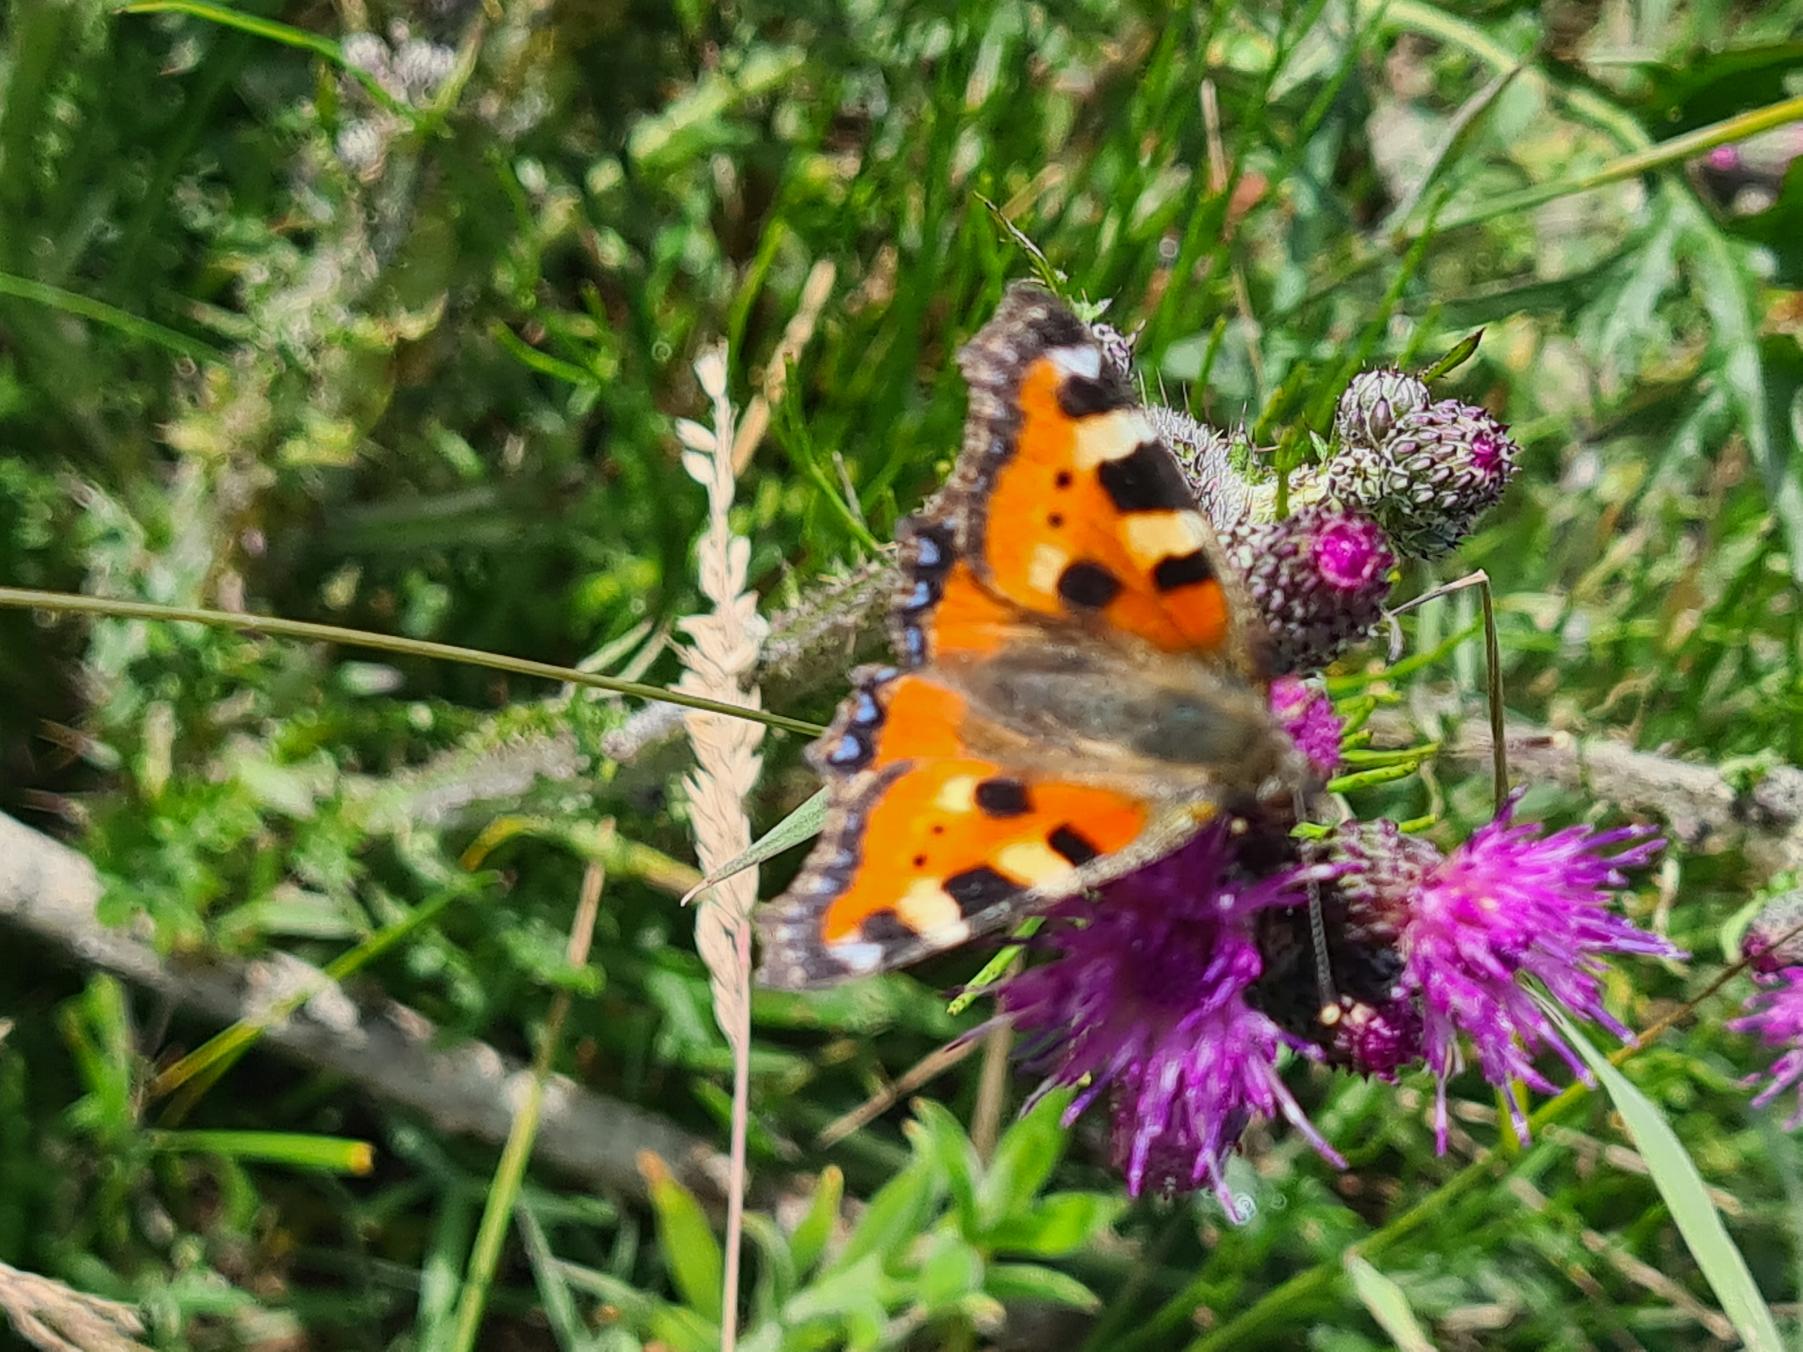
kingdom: Animalia
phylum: Arthropoda
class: Insecta
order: Lepidoptera
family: Nymphalidae
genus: Aglais
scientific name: Aglais urticae
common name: Nældens takvinge
